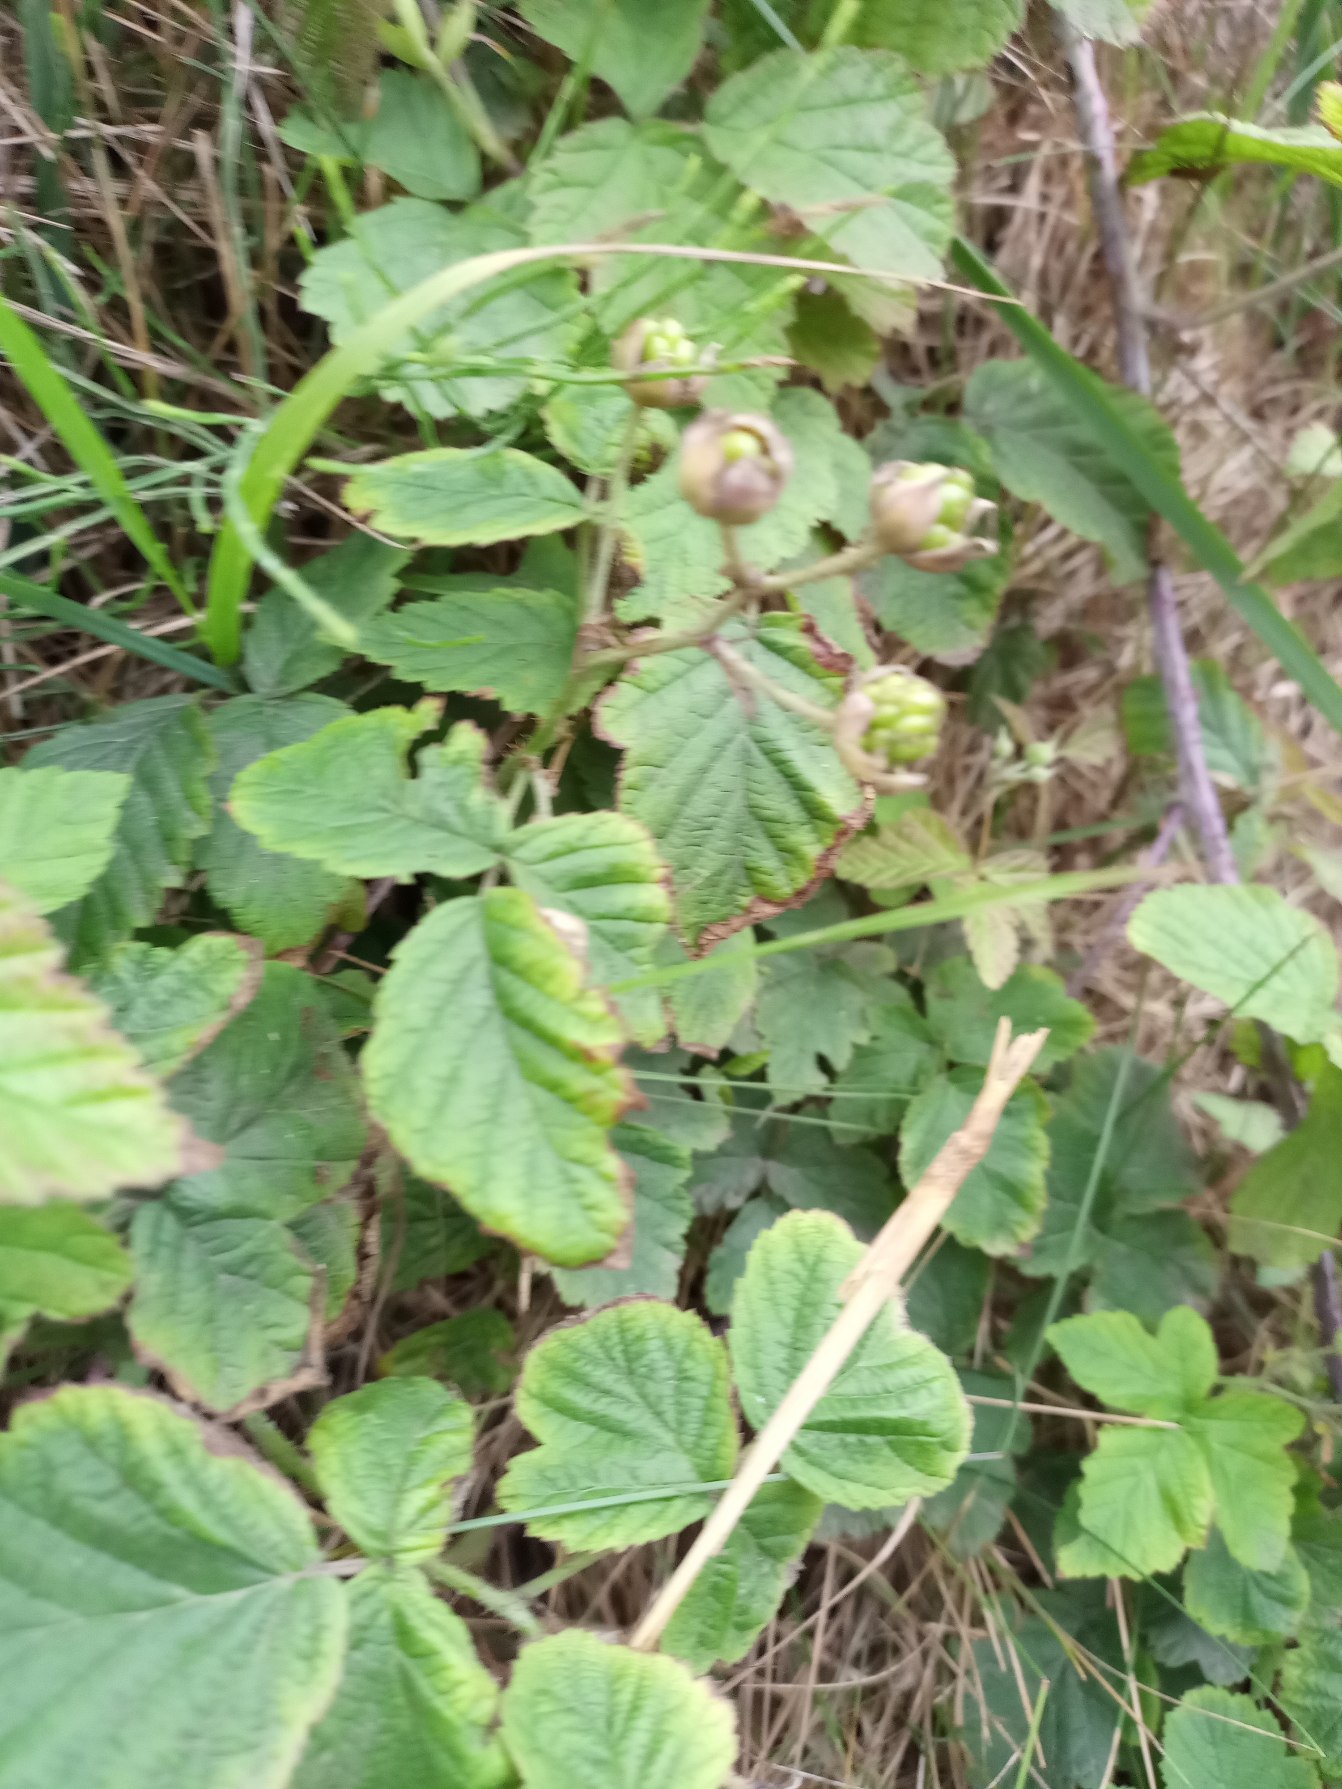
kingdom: Plantae
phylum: Tracheophyta
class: Magnoliopsida
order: Rosales
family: Rosaceae
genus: Rubus
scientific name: Rubus caesius
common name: Korbær
